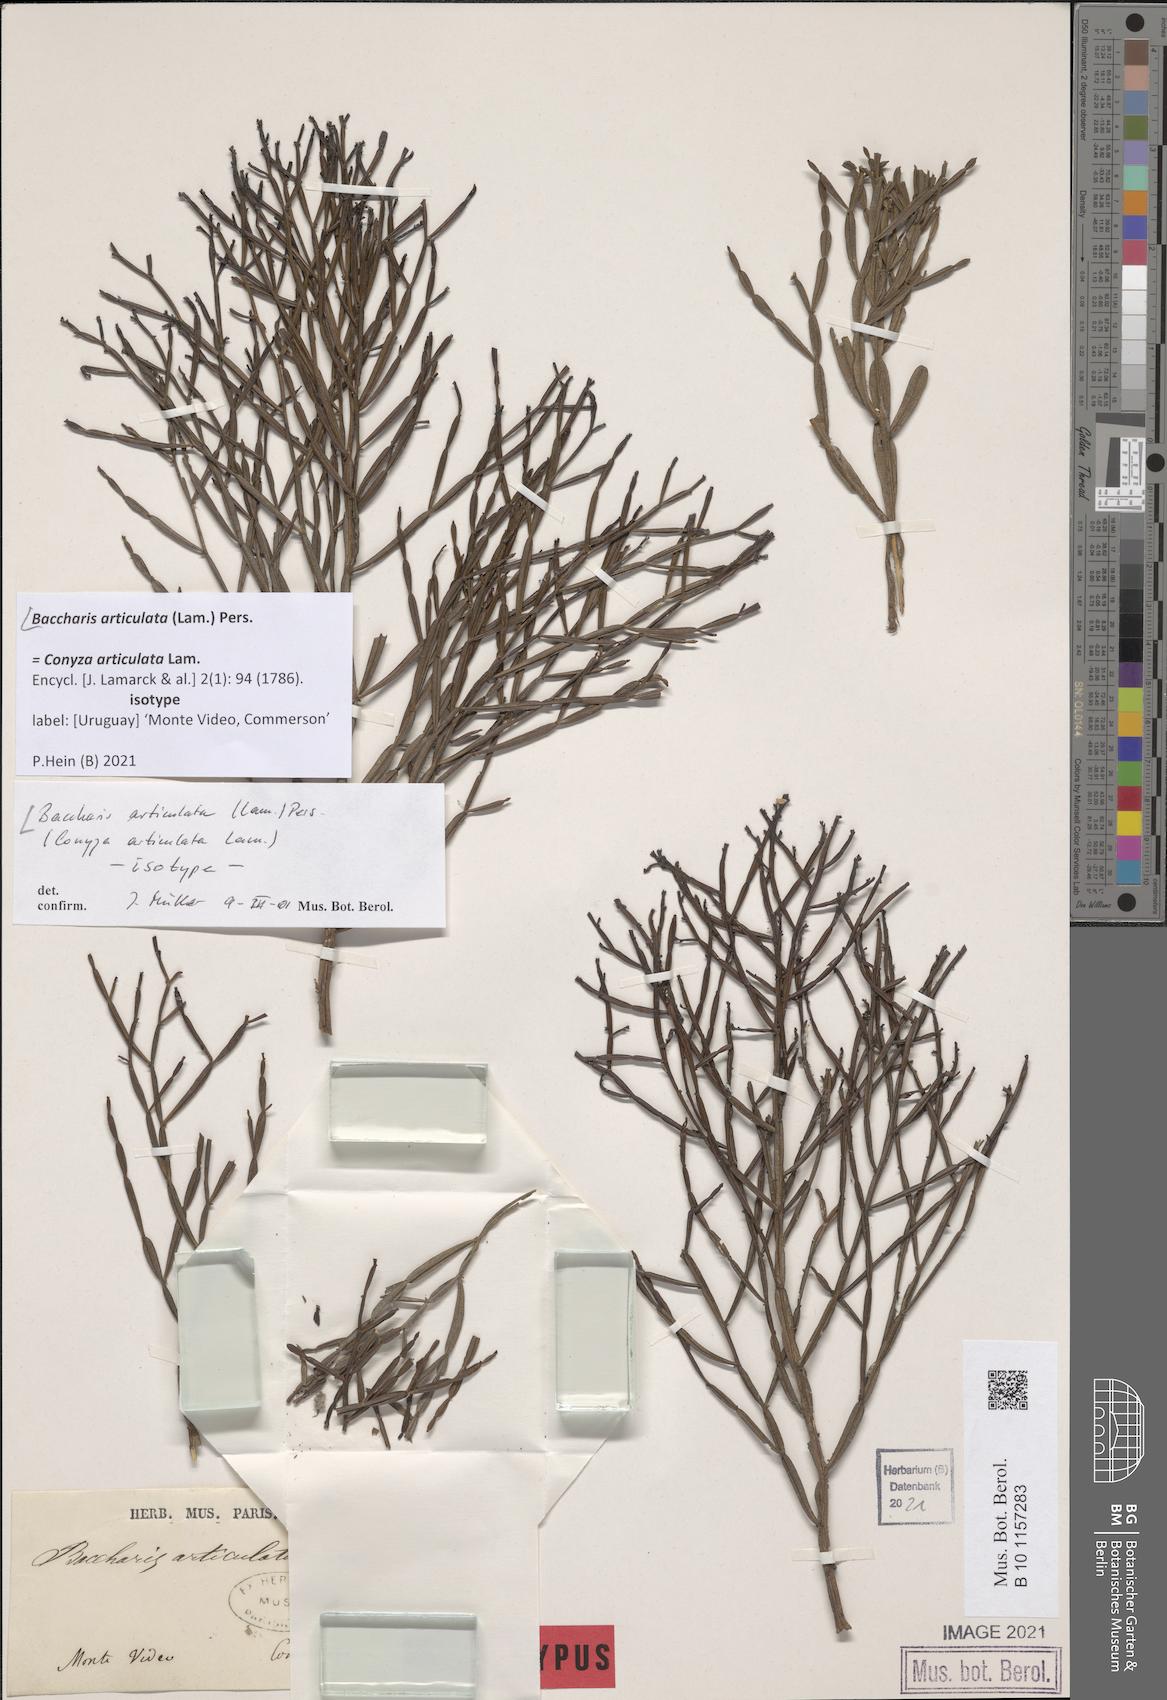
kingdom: Plantae
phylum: Tracheophyta
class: Magnoliopsida
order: Asterales
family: Asteraceae
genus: Baccharis
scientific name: Baccharis articulata
